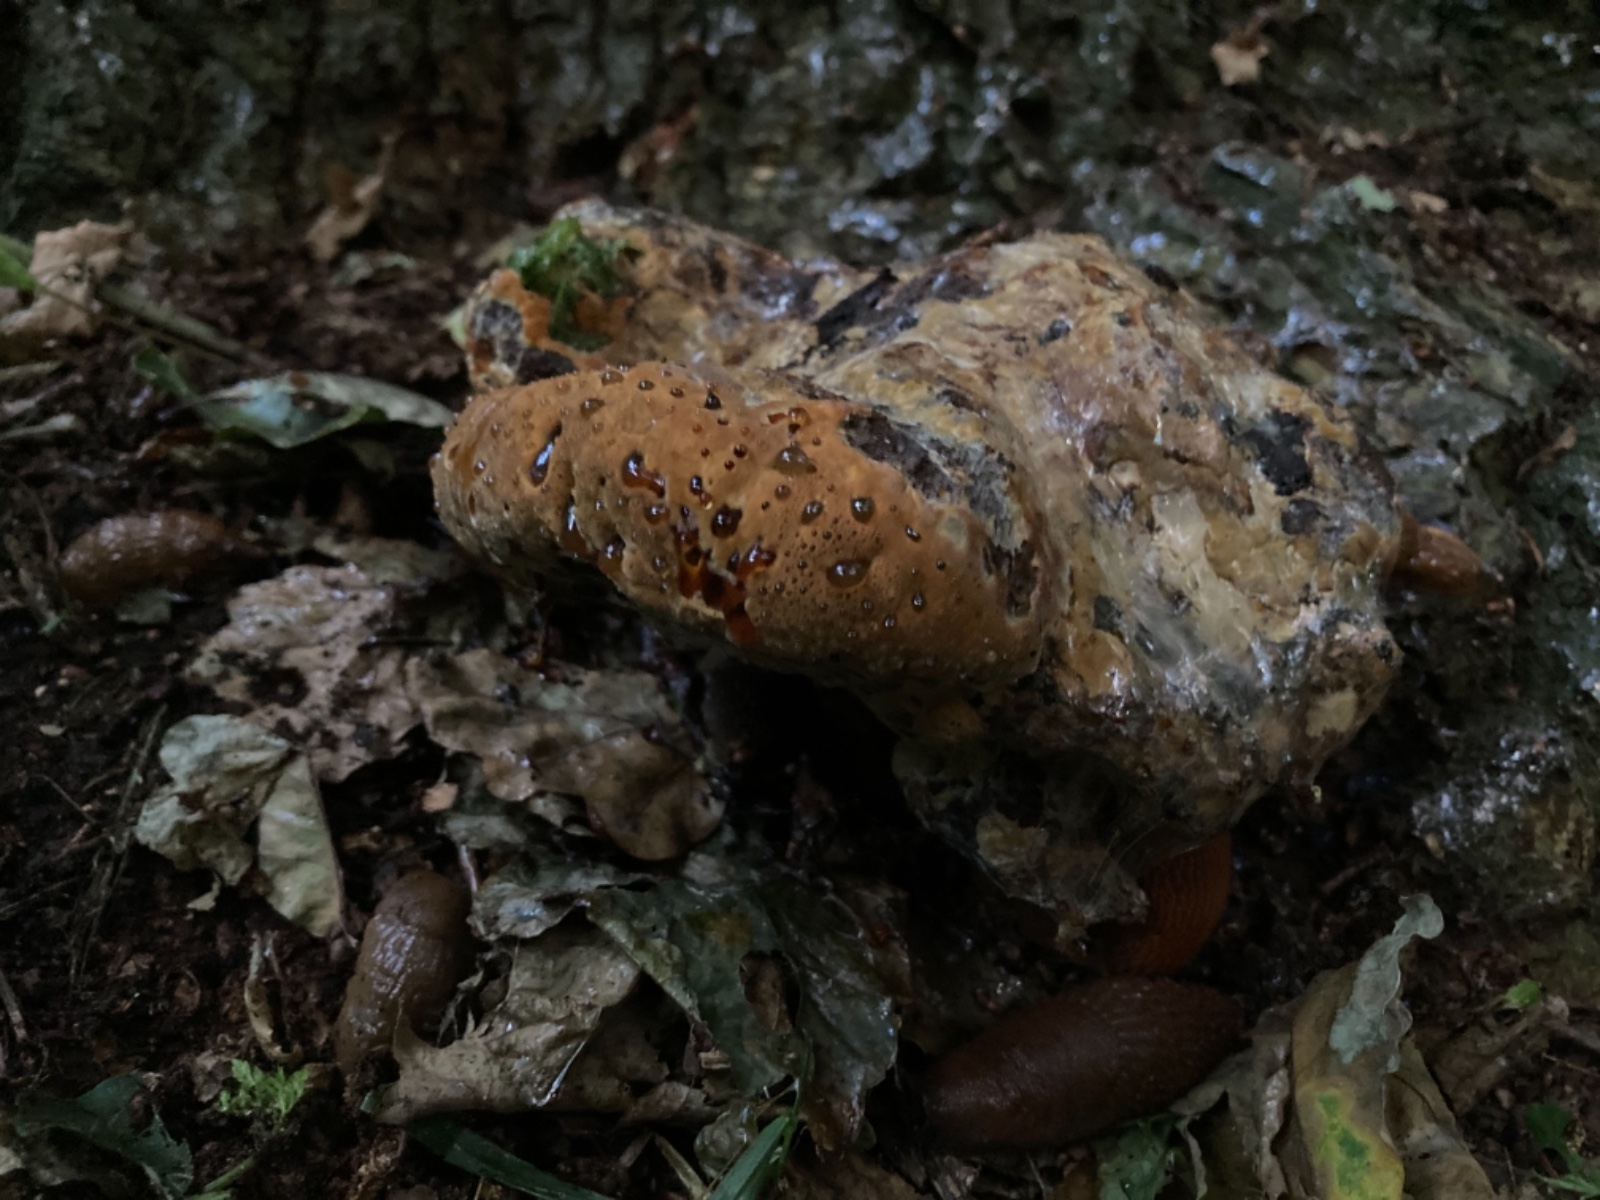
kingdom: Fungi
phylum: Basidiomycota
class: Agaricomycetes
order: Hymenochaetales
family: Hymenochaetaceae
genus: Pseudoinonotus
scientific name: Pseudoinonotus dryadeus
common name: ege-spejlporesvamp
